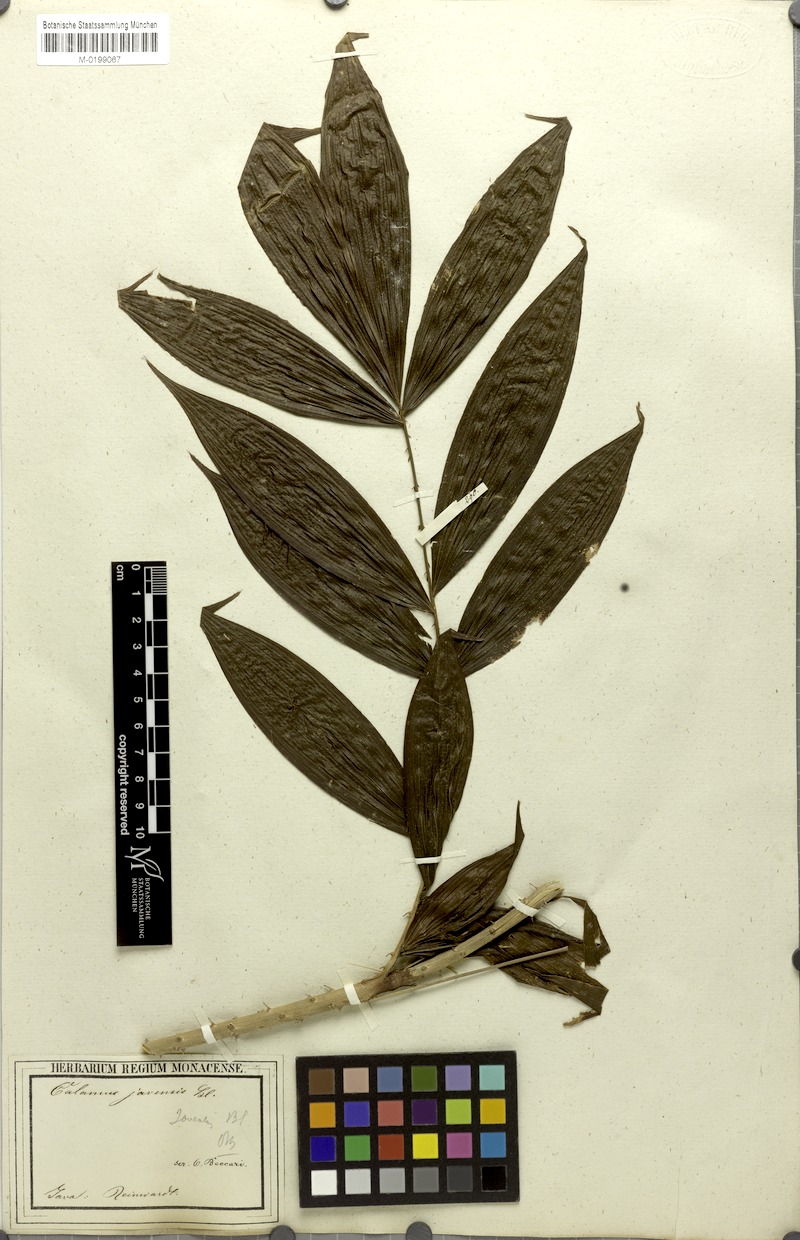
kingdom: Plantae
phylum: Tracheophyta
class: Liliopsida
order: Arecales
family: Arecaceae
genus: Calamus
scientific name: Calamus javensis
